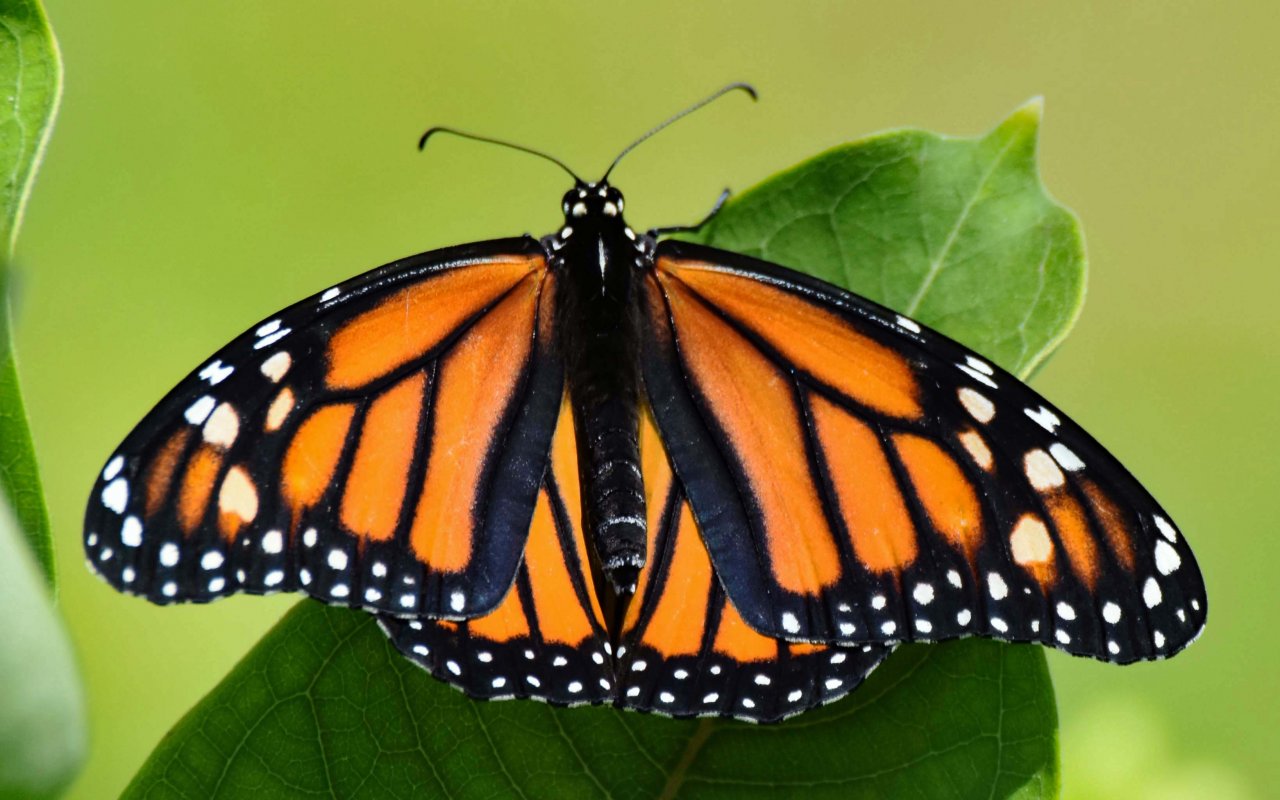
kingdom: Animalia
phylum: Arthropoda
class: Insecta
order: Lepidoptera
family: Nymphalidae
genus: Danaus
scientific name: Danaus plexippus
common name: Monarch
